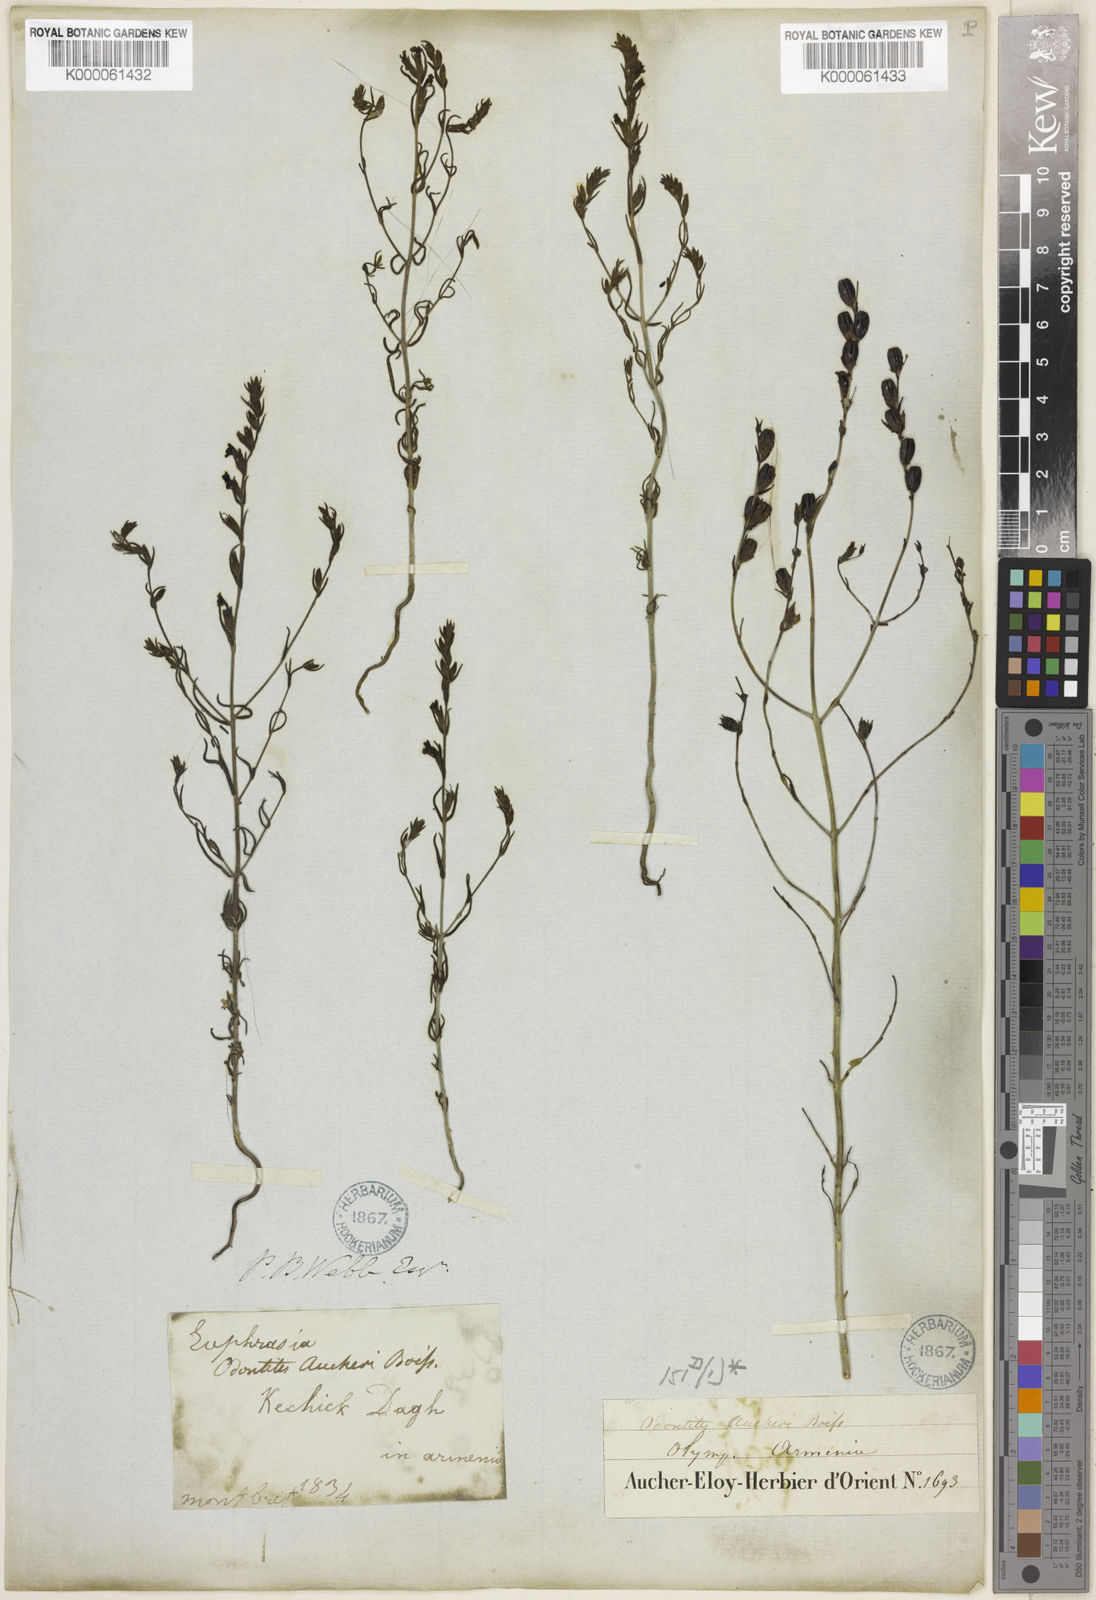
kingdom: Plantae
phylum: Tracheophyta
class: Magnoliopsida
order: Lamiales
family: Orobanchaceae
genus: Odontites
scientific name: Odontites aucheri
